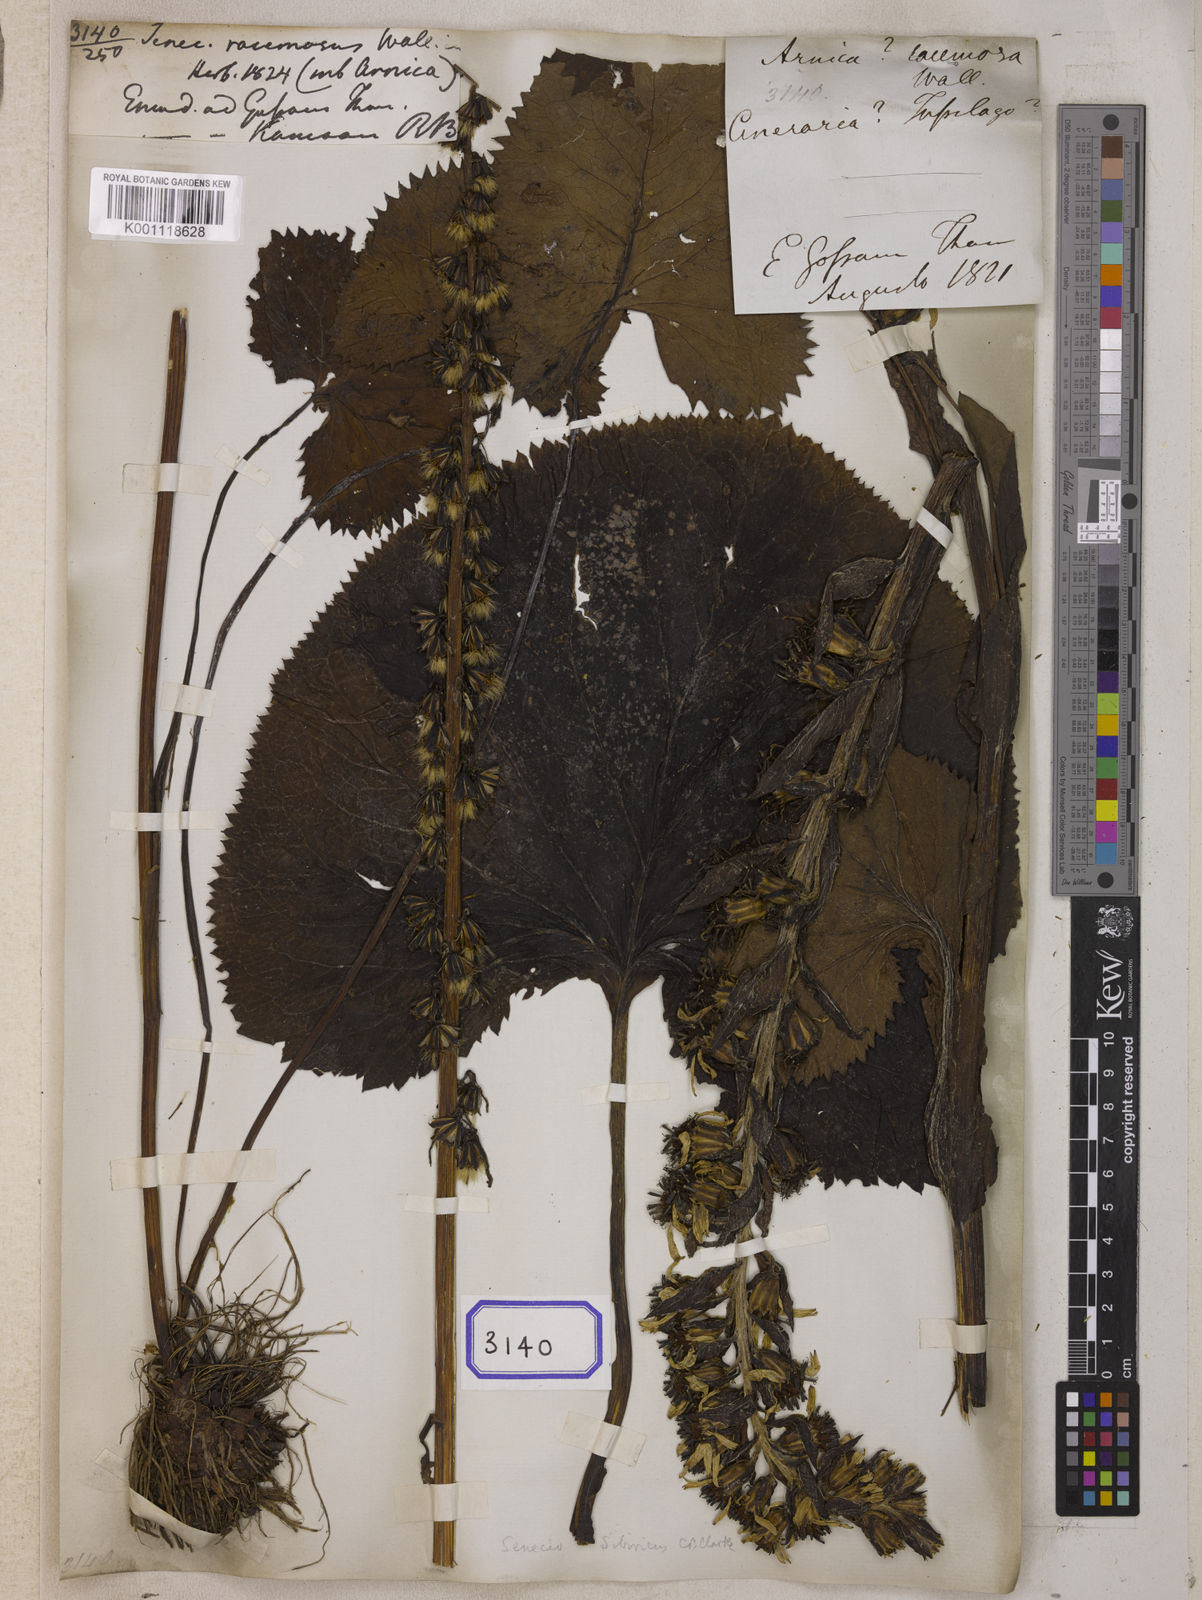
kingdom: Plantae
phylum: Tracheophyta
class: Magnoliopsida
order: Asterales
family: Asteraceae
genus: Senecio
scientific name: Senecio
